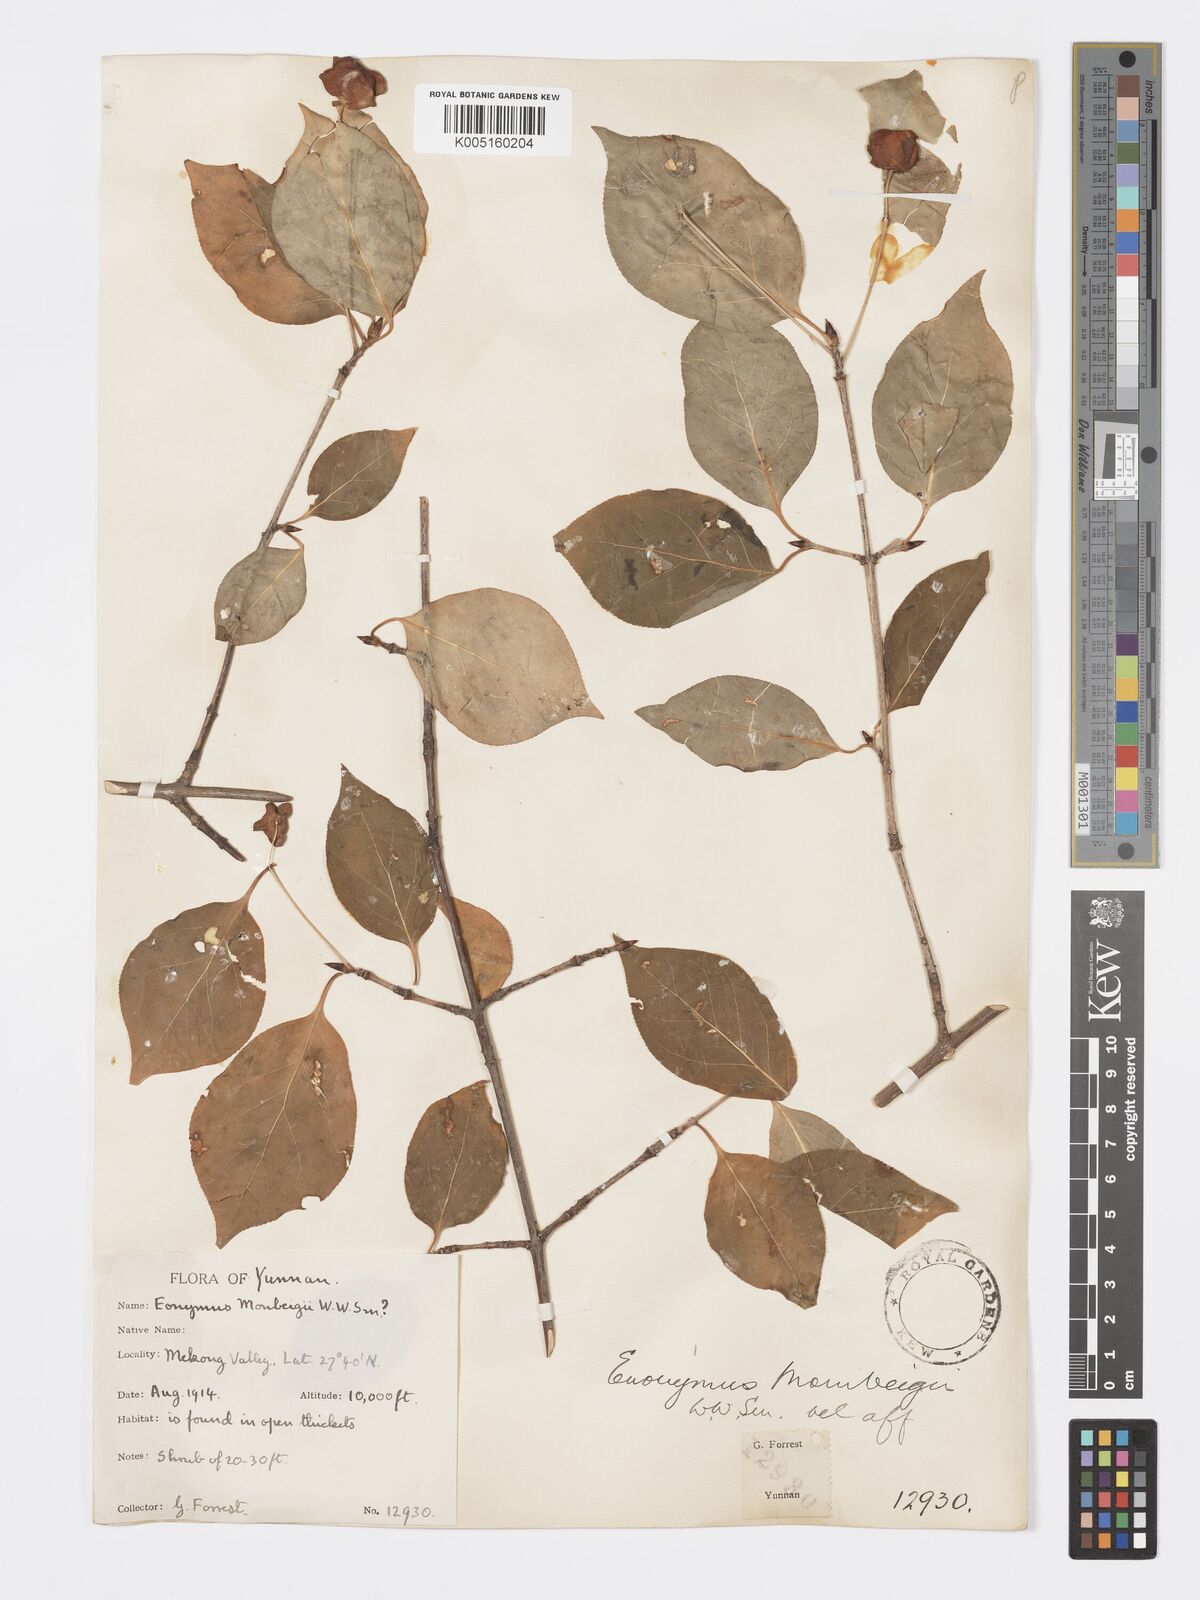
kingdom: Plantae
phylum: Tracheophyta
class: Magnoliopsida
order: Celastrales
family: Celastraceae
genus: Euonymus
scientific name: Euonymus sanguineus
